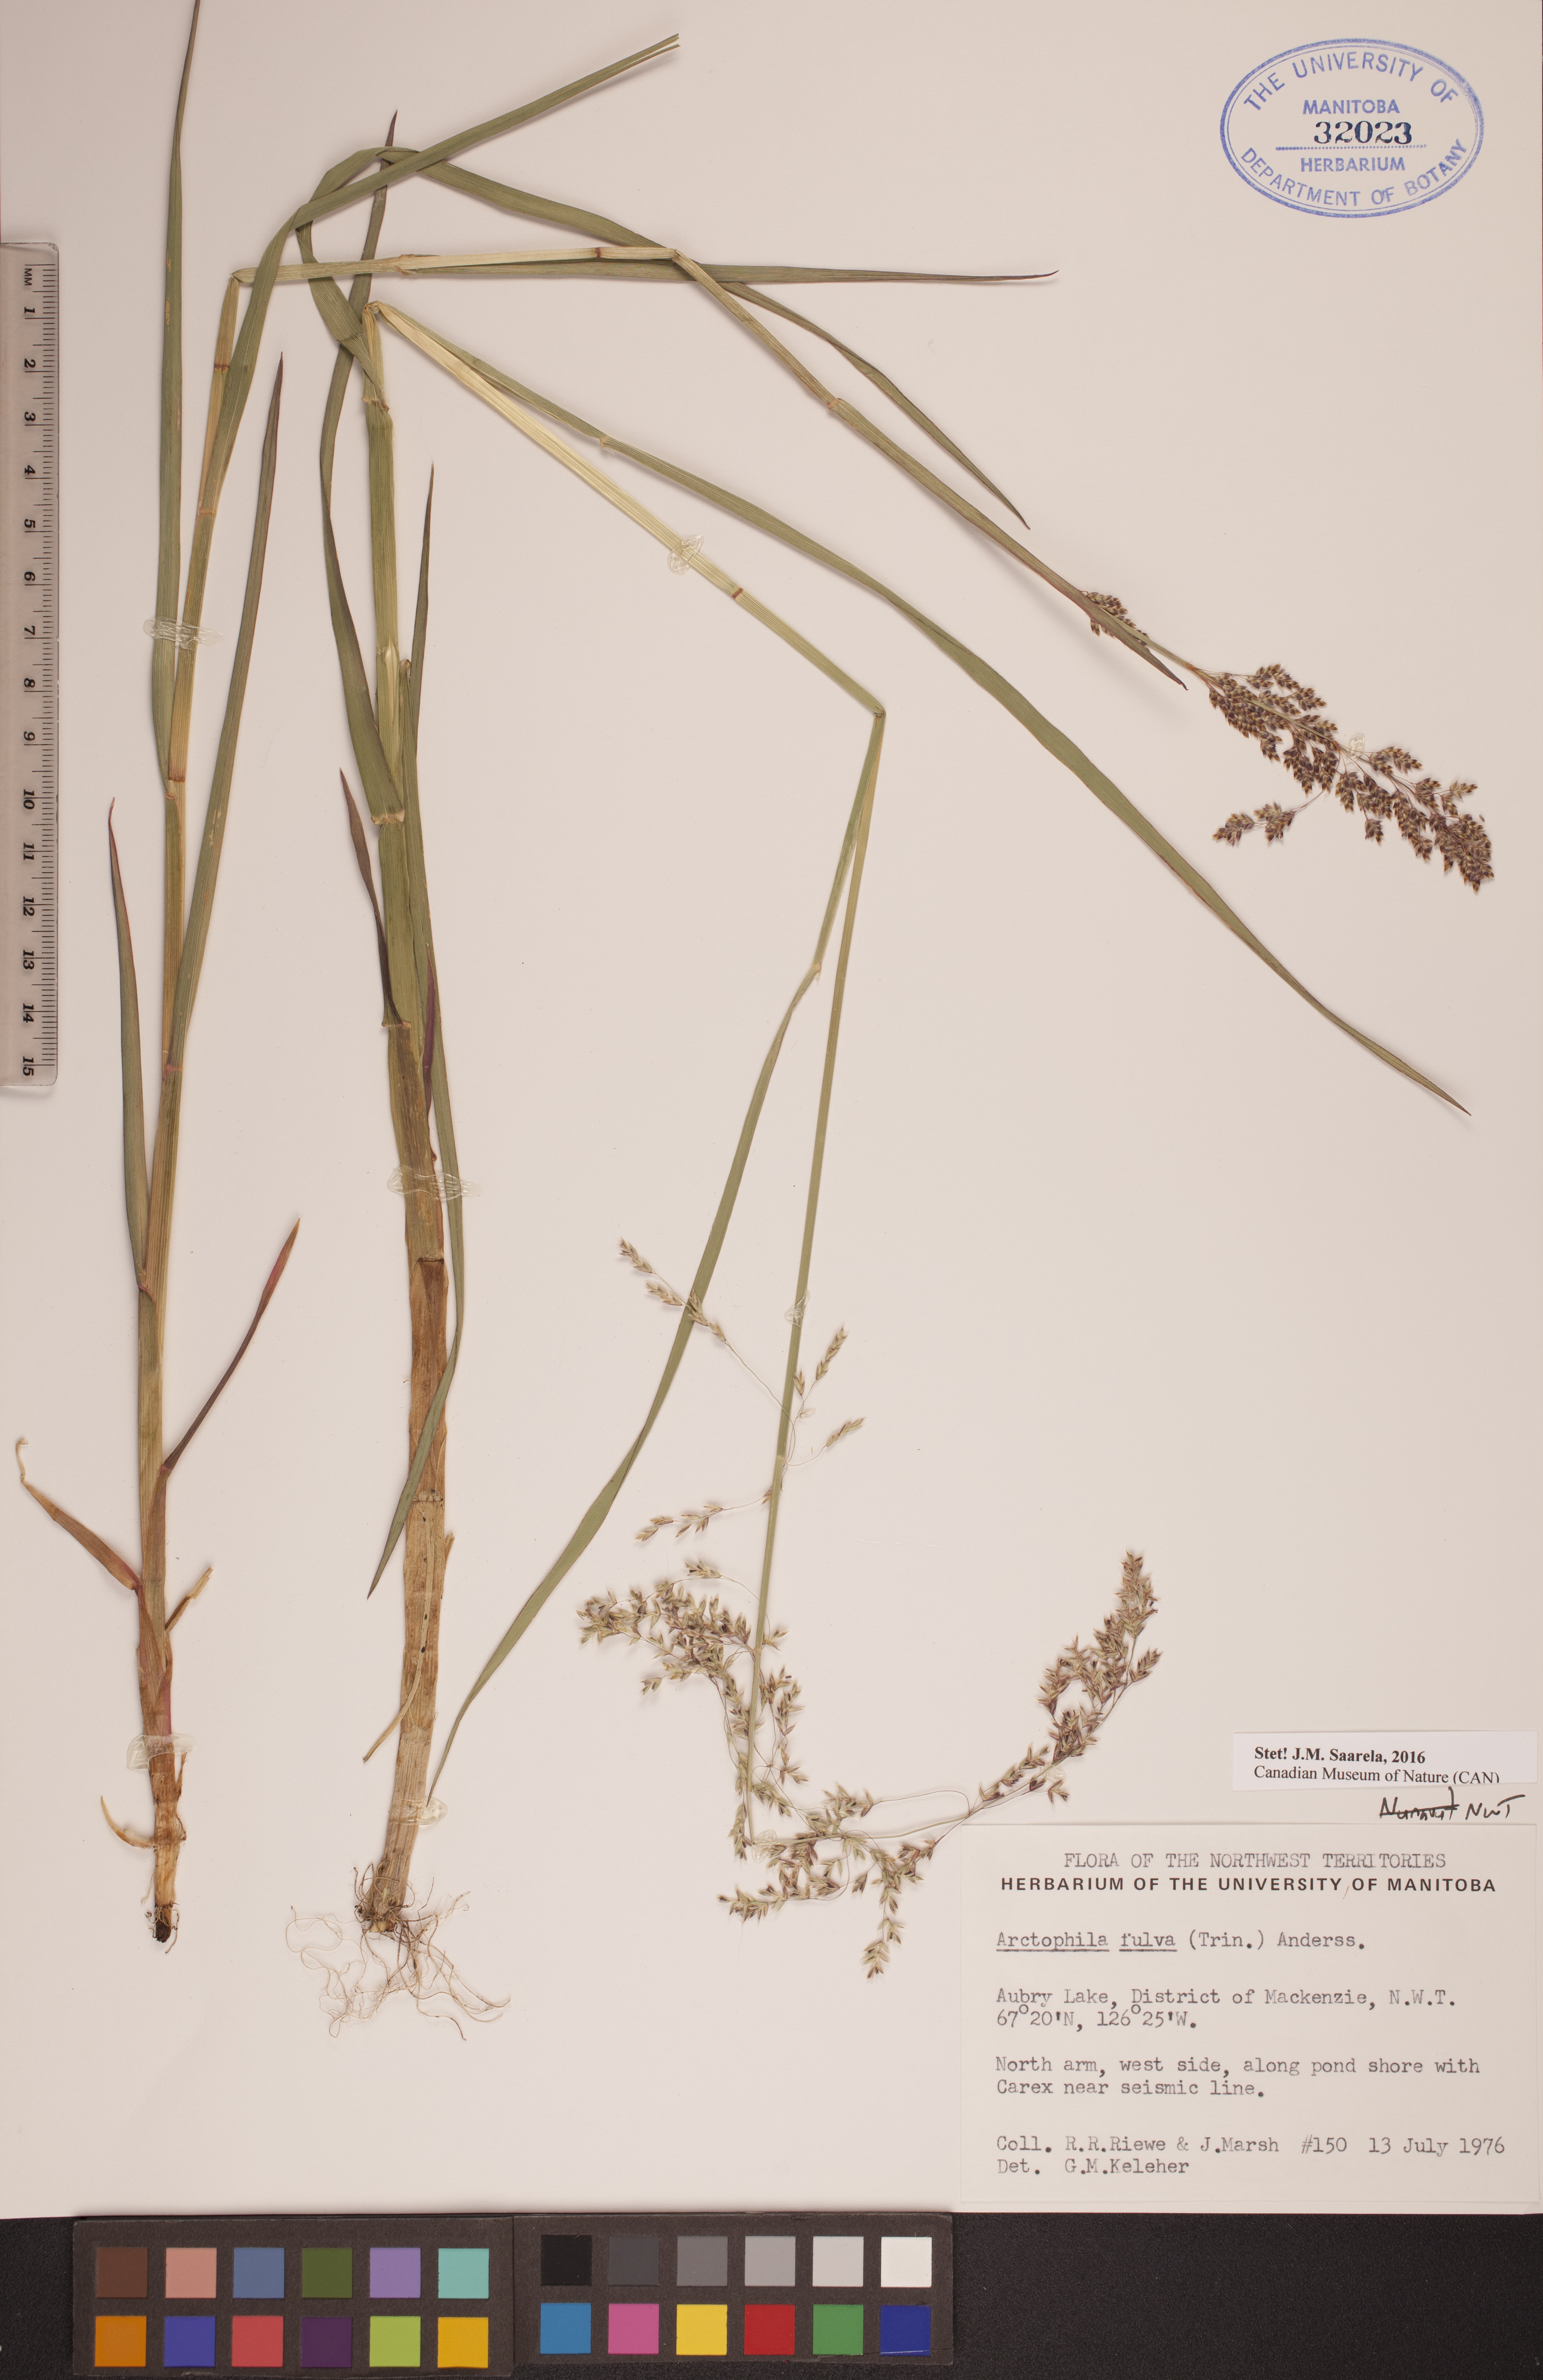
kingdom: Plantae
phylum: Tracheophyta
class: Liliopsida
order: Poales
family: Poaceae
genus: Dupontia
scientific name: Dupontia fulva
